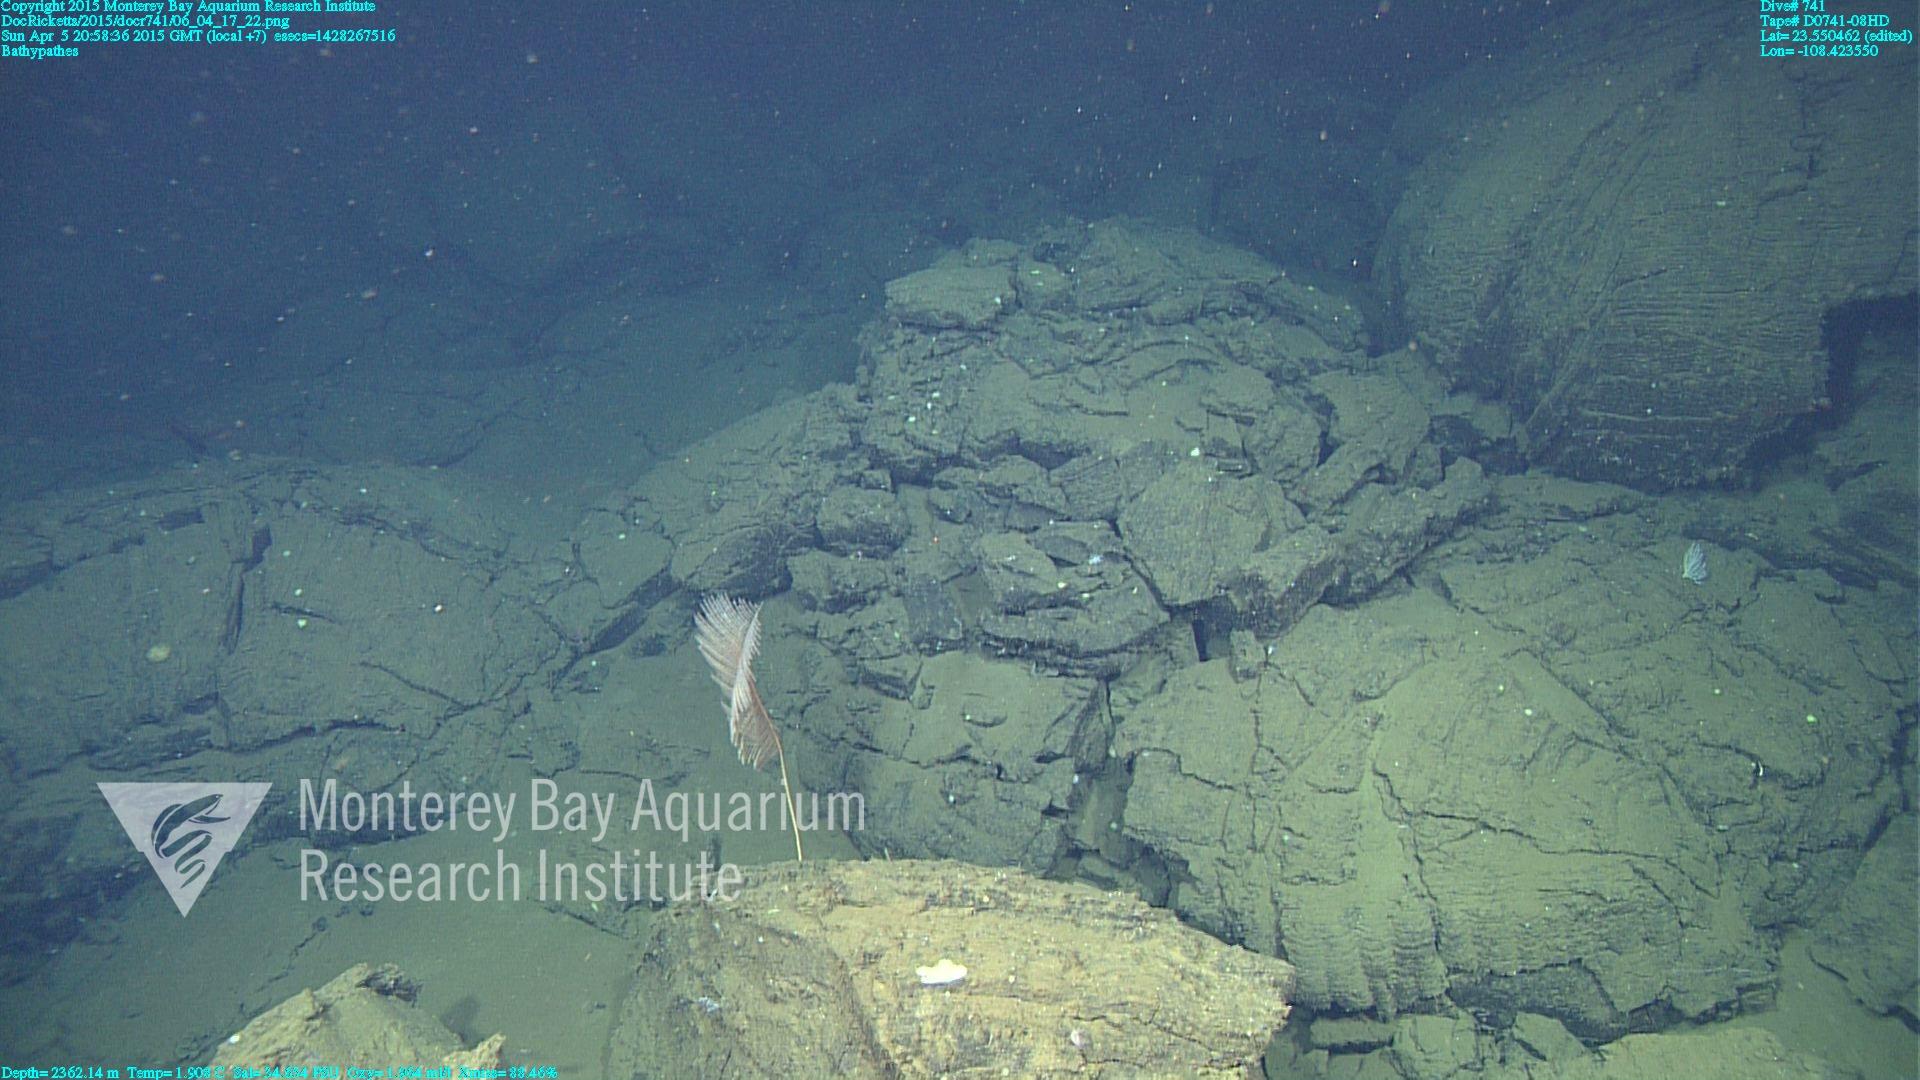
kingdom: Animalia
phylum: Cnidaria
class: Anthozoa
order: Antipatharia
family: Schizopathidae
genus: Bathypathes
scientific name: Bathypathes
